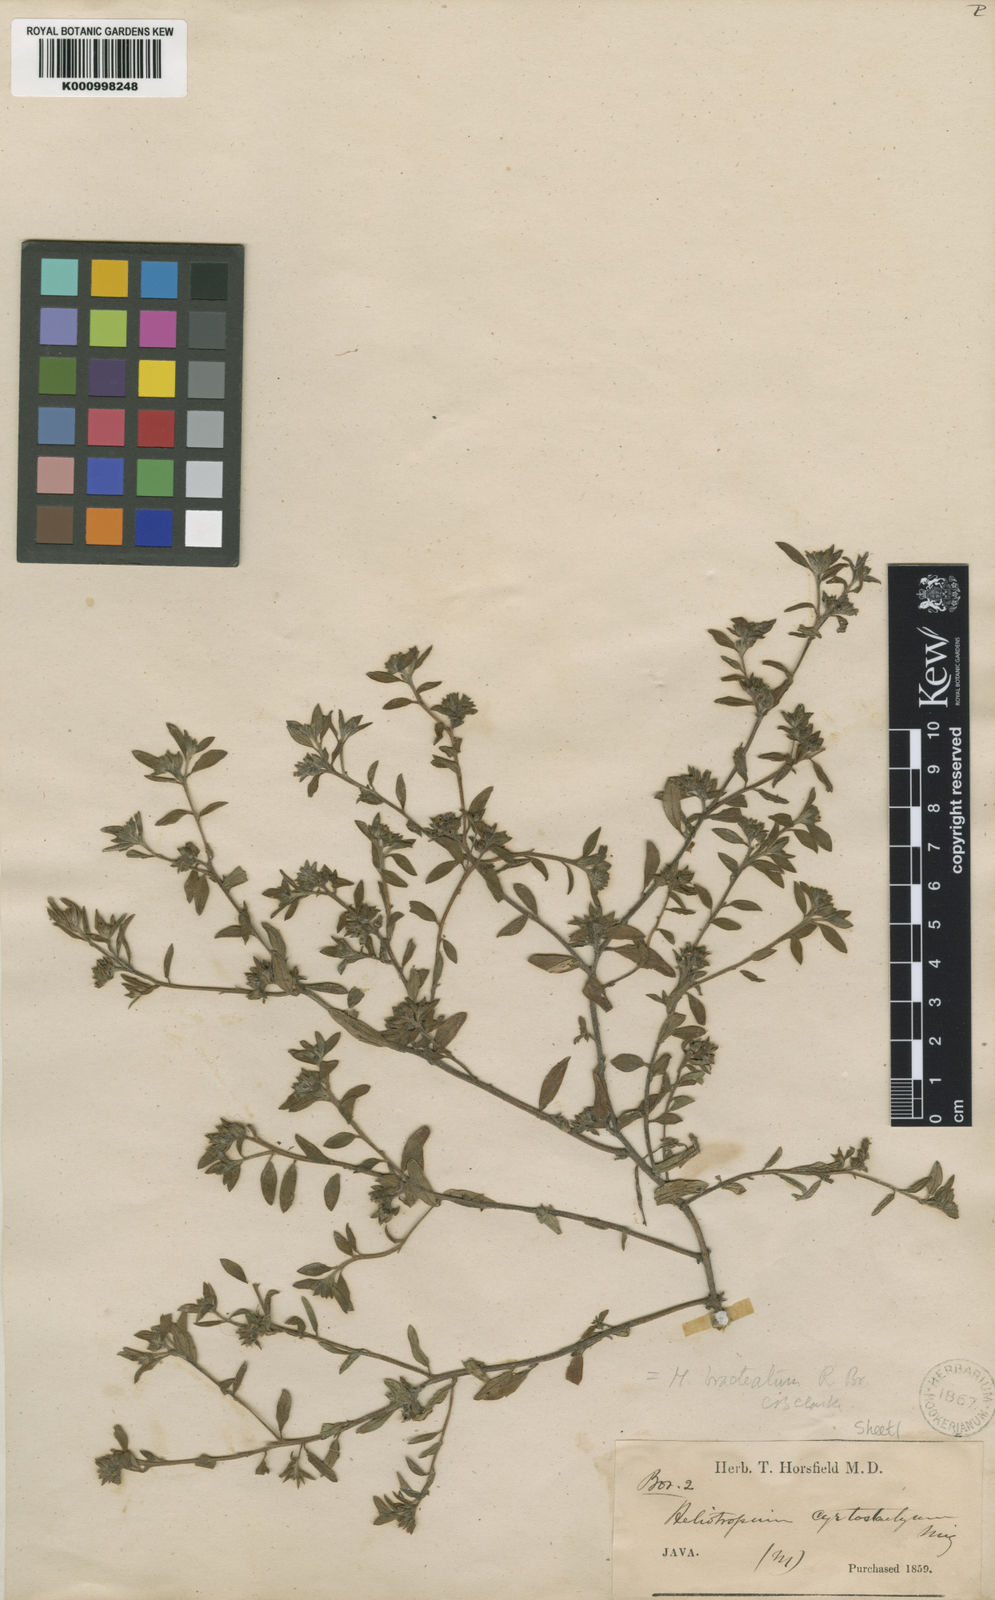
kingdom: Plantae
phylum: Tracheophyta
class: Magnoliopsida
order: Boraginales
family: Heliotropiaceae
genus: Euploca
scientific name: Euploca bracteata
